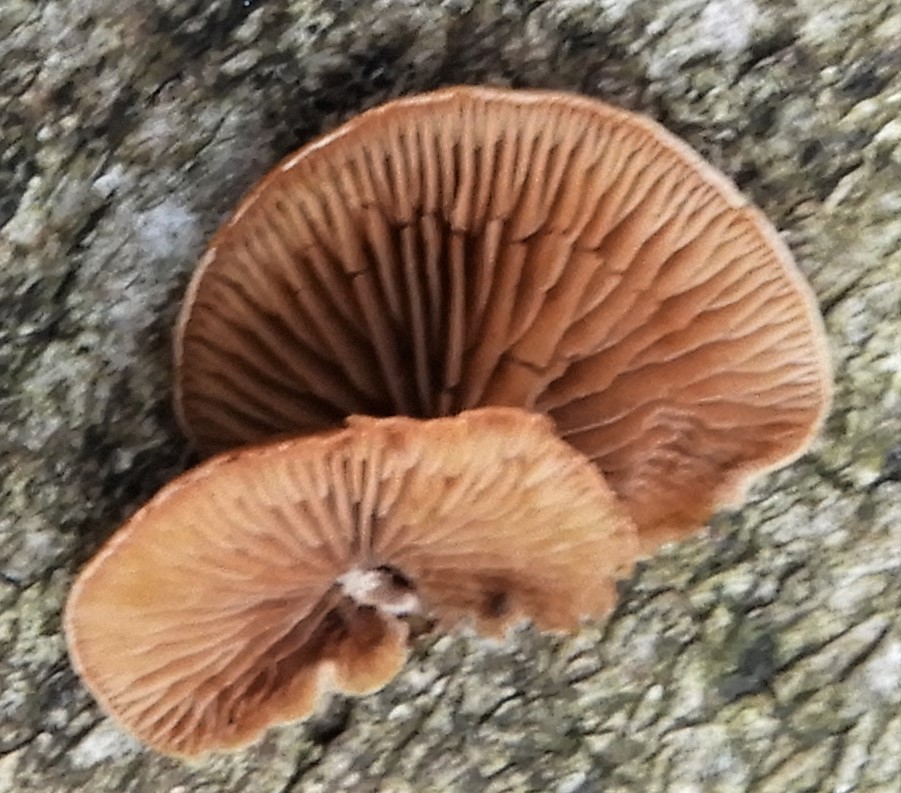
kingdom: Fungi
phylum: Basidiomycota
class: Agaricomycetes
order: Agaricales
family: Strophariaceae
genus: Deconica
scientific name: Deconica horizontalis
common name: ved-stråhat
